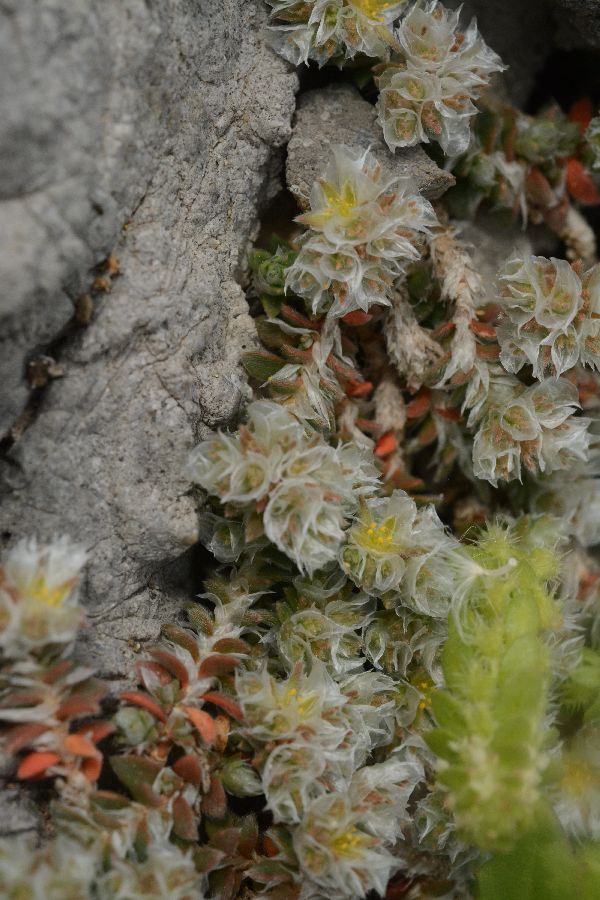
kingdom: Plantae
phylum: Tracheophyta
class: Magnoliopsida
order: Caryophyllales
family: Caryophyllaceae
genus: Paronychia
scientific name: Paronychia macrosepala
